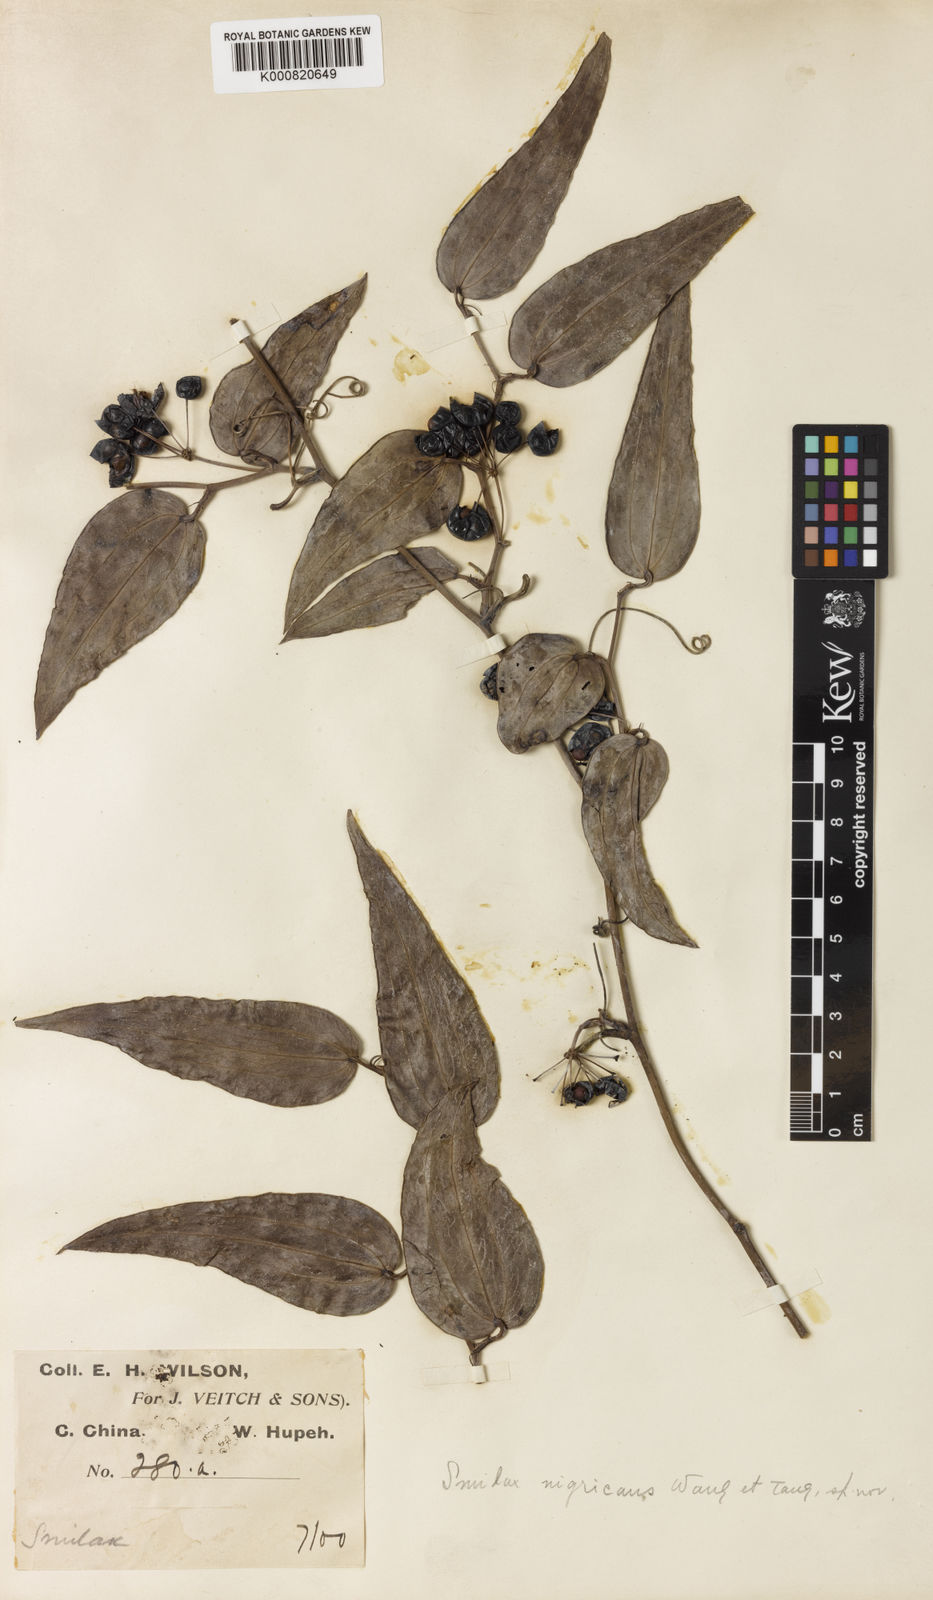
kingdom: Plantae
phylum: Tracheophyta
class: Liliopsida
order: Liliales
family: Smilacaceae
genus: Smilax
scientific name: Smilax
